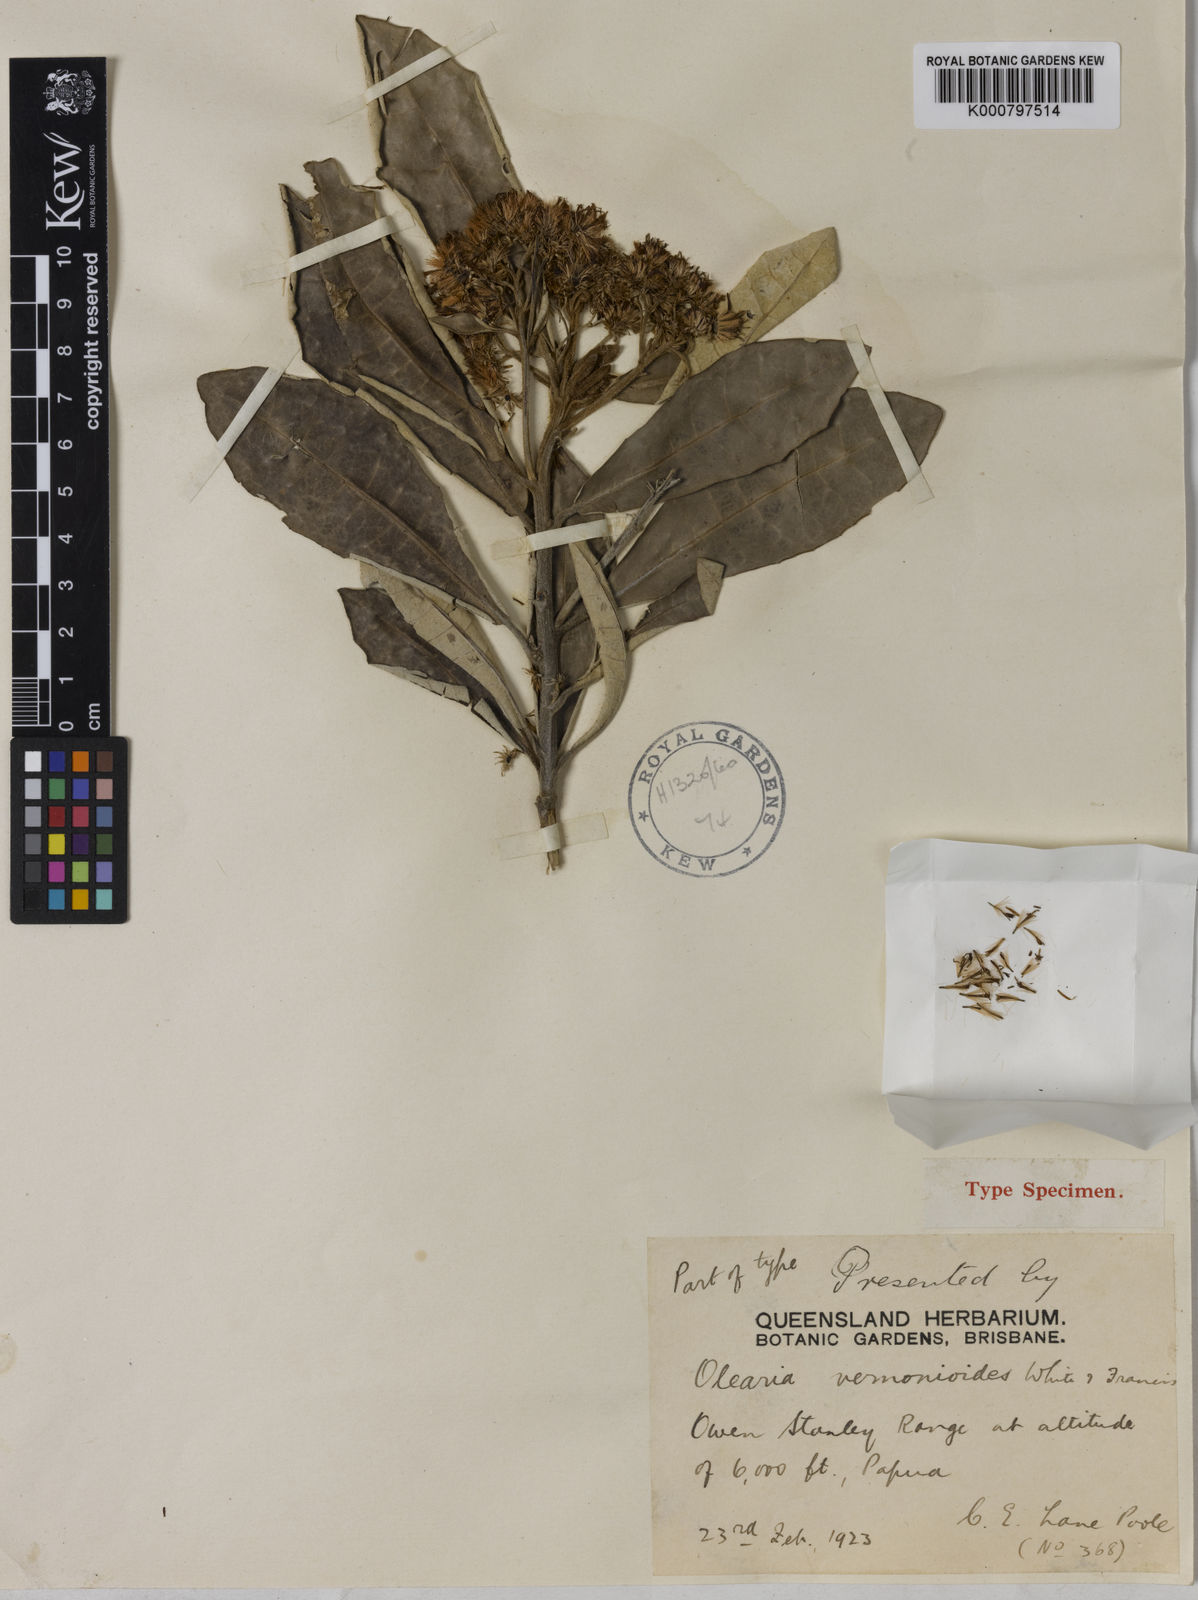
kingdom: Plantae
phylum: Tracheophyta
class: Magnoliopsida
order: Asterales
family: Asteraceae
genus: Olearia
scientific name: Olearia vernonioides
